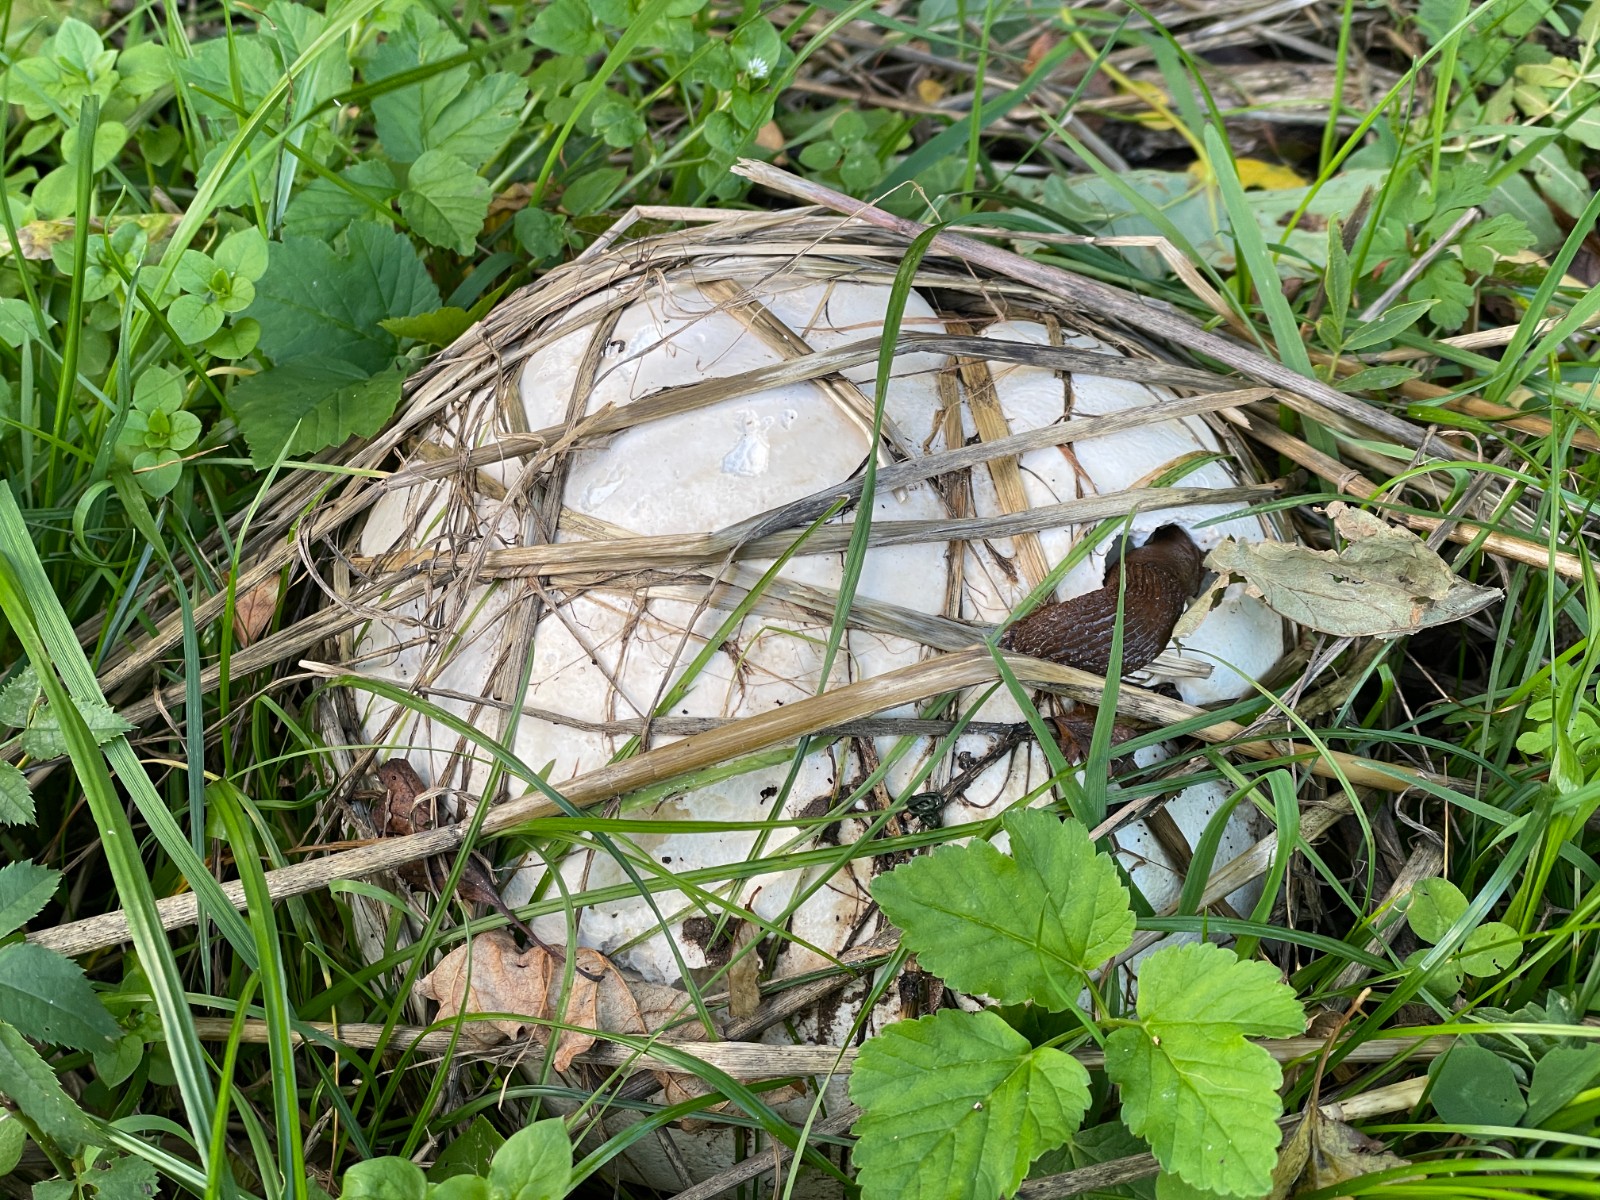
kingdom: Fungi
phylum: Basidiomycota
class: Agaricomycetes
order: Agaricales
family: Lycoperdaceae
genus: Calvatia
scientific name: Calvatia gigantea
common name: kæmpestøvbold
